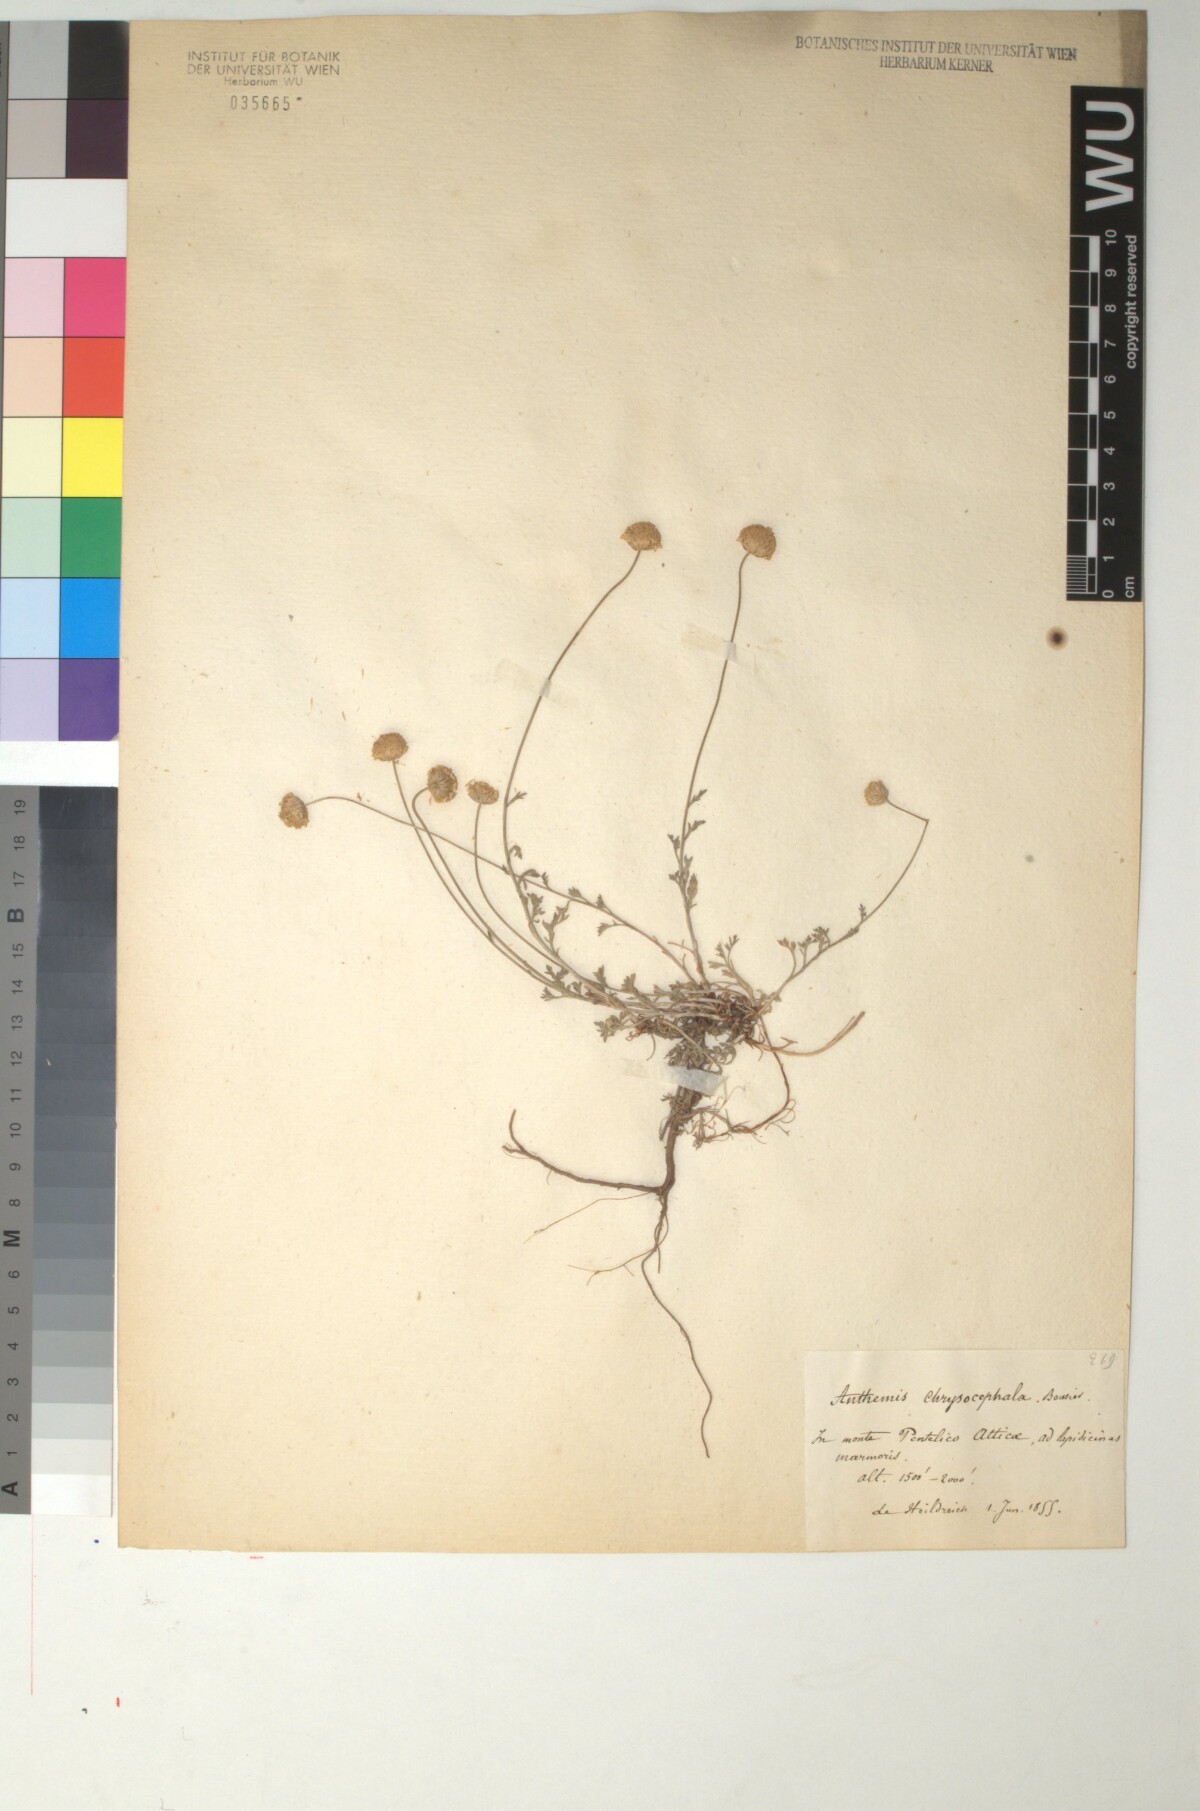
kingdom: Plantae
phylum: Tracheophyta
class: Magnoliopsida
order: Asterales
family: Asteraceae
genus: Anthemis
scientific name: Anthemis alpestris
